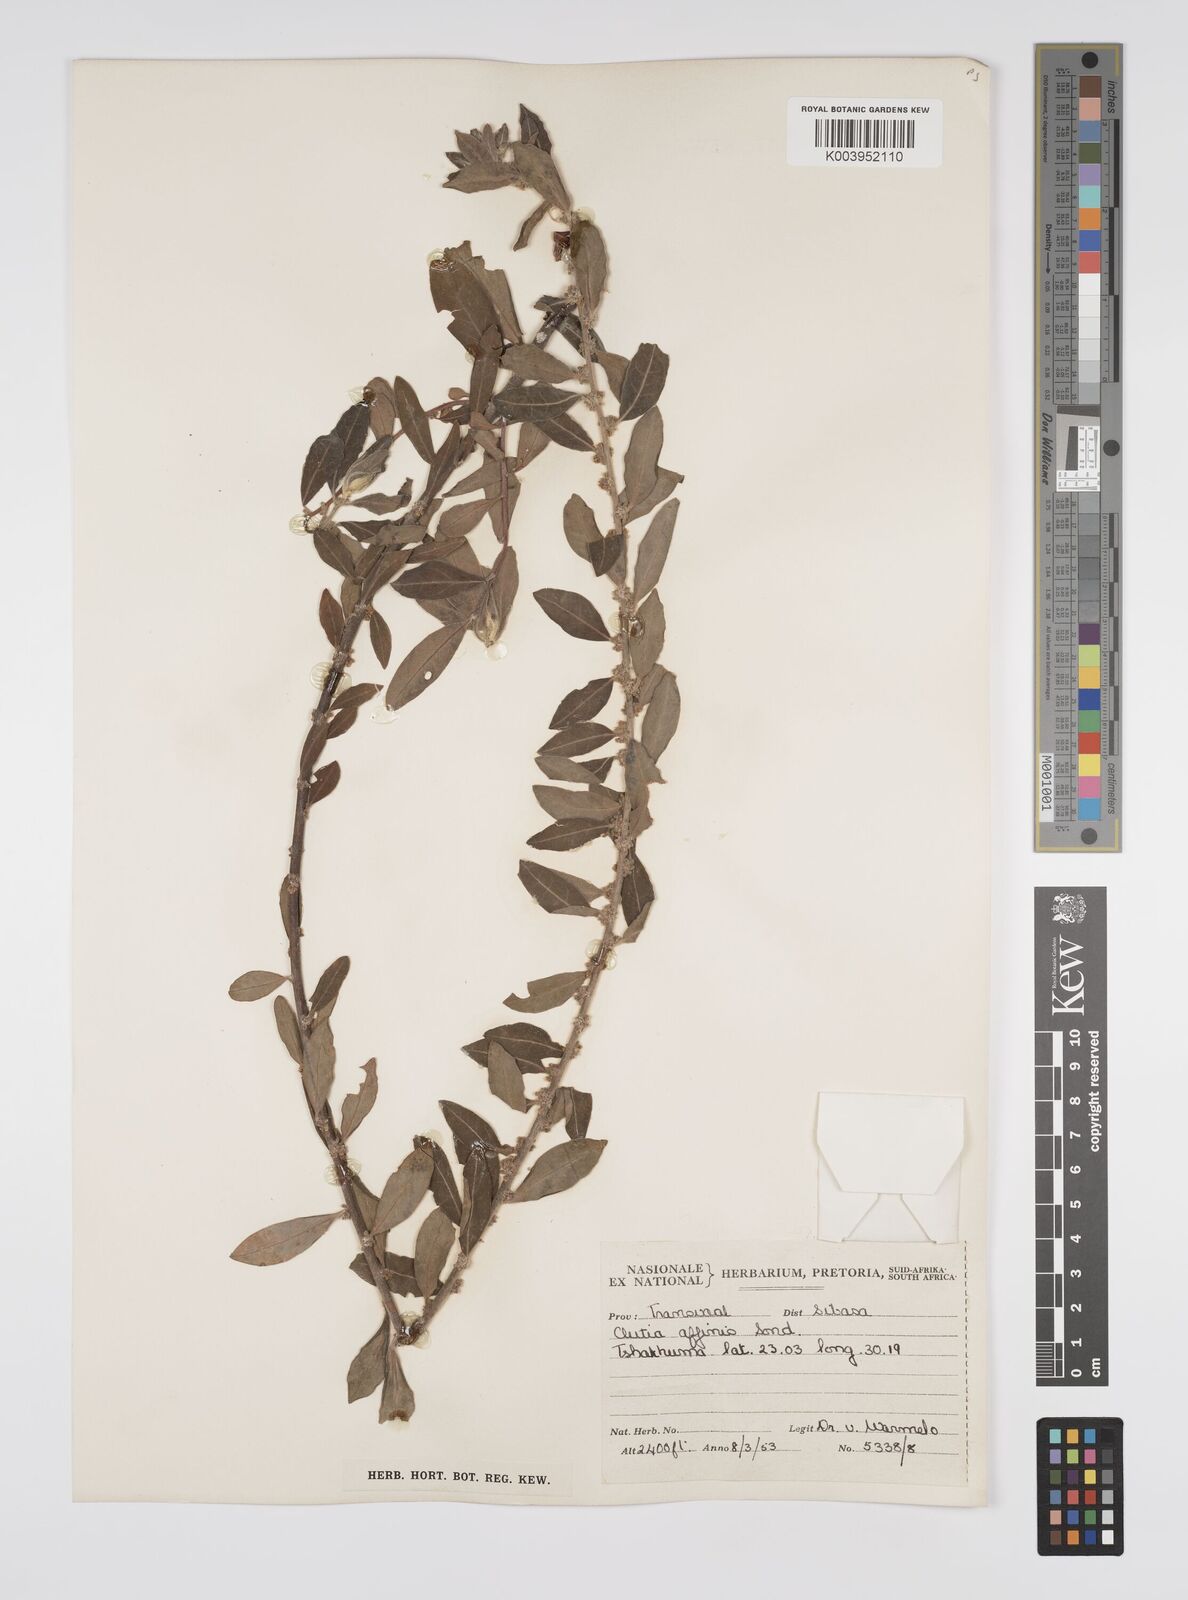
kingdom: Plantae
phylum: Tracheophyta
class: Magnoliopsida
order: Malpighiales
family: Peraceae
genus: Clutia
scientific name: Clutia affinis
